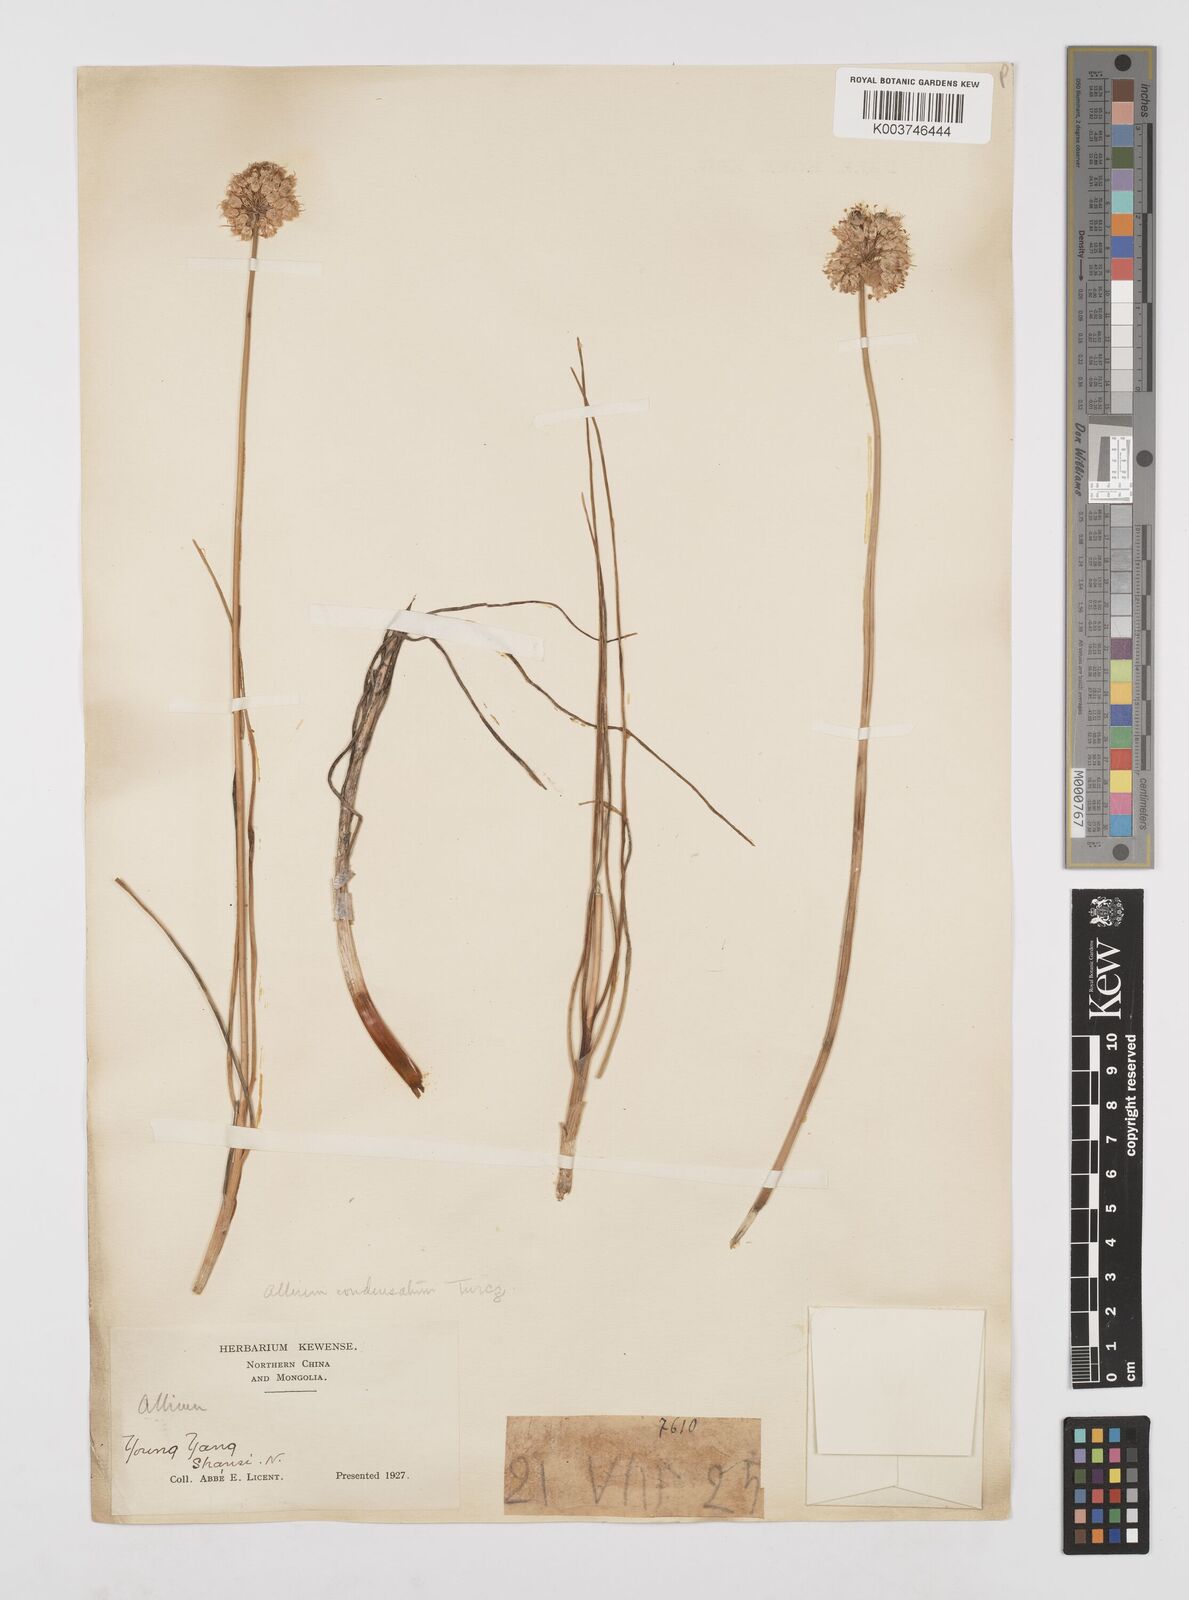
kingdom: Plantae
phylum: Tracheophyta
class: Liliopsida
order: Asparagales
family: Amaryllidaceae
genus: Allium
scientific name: Allium condensatum
